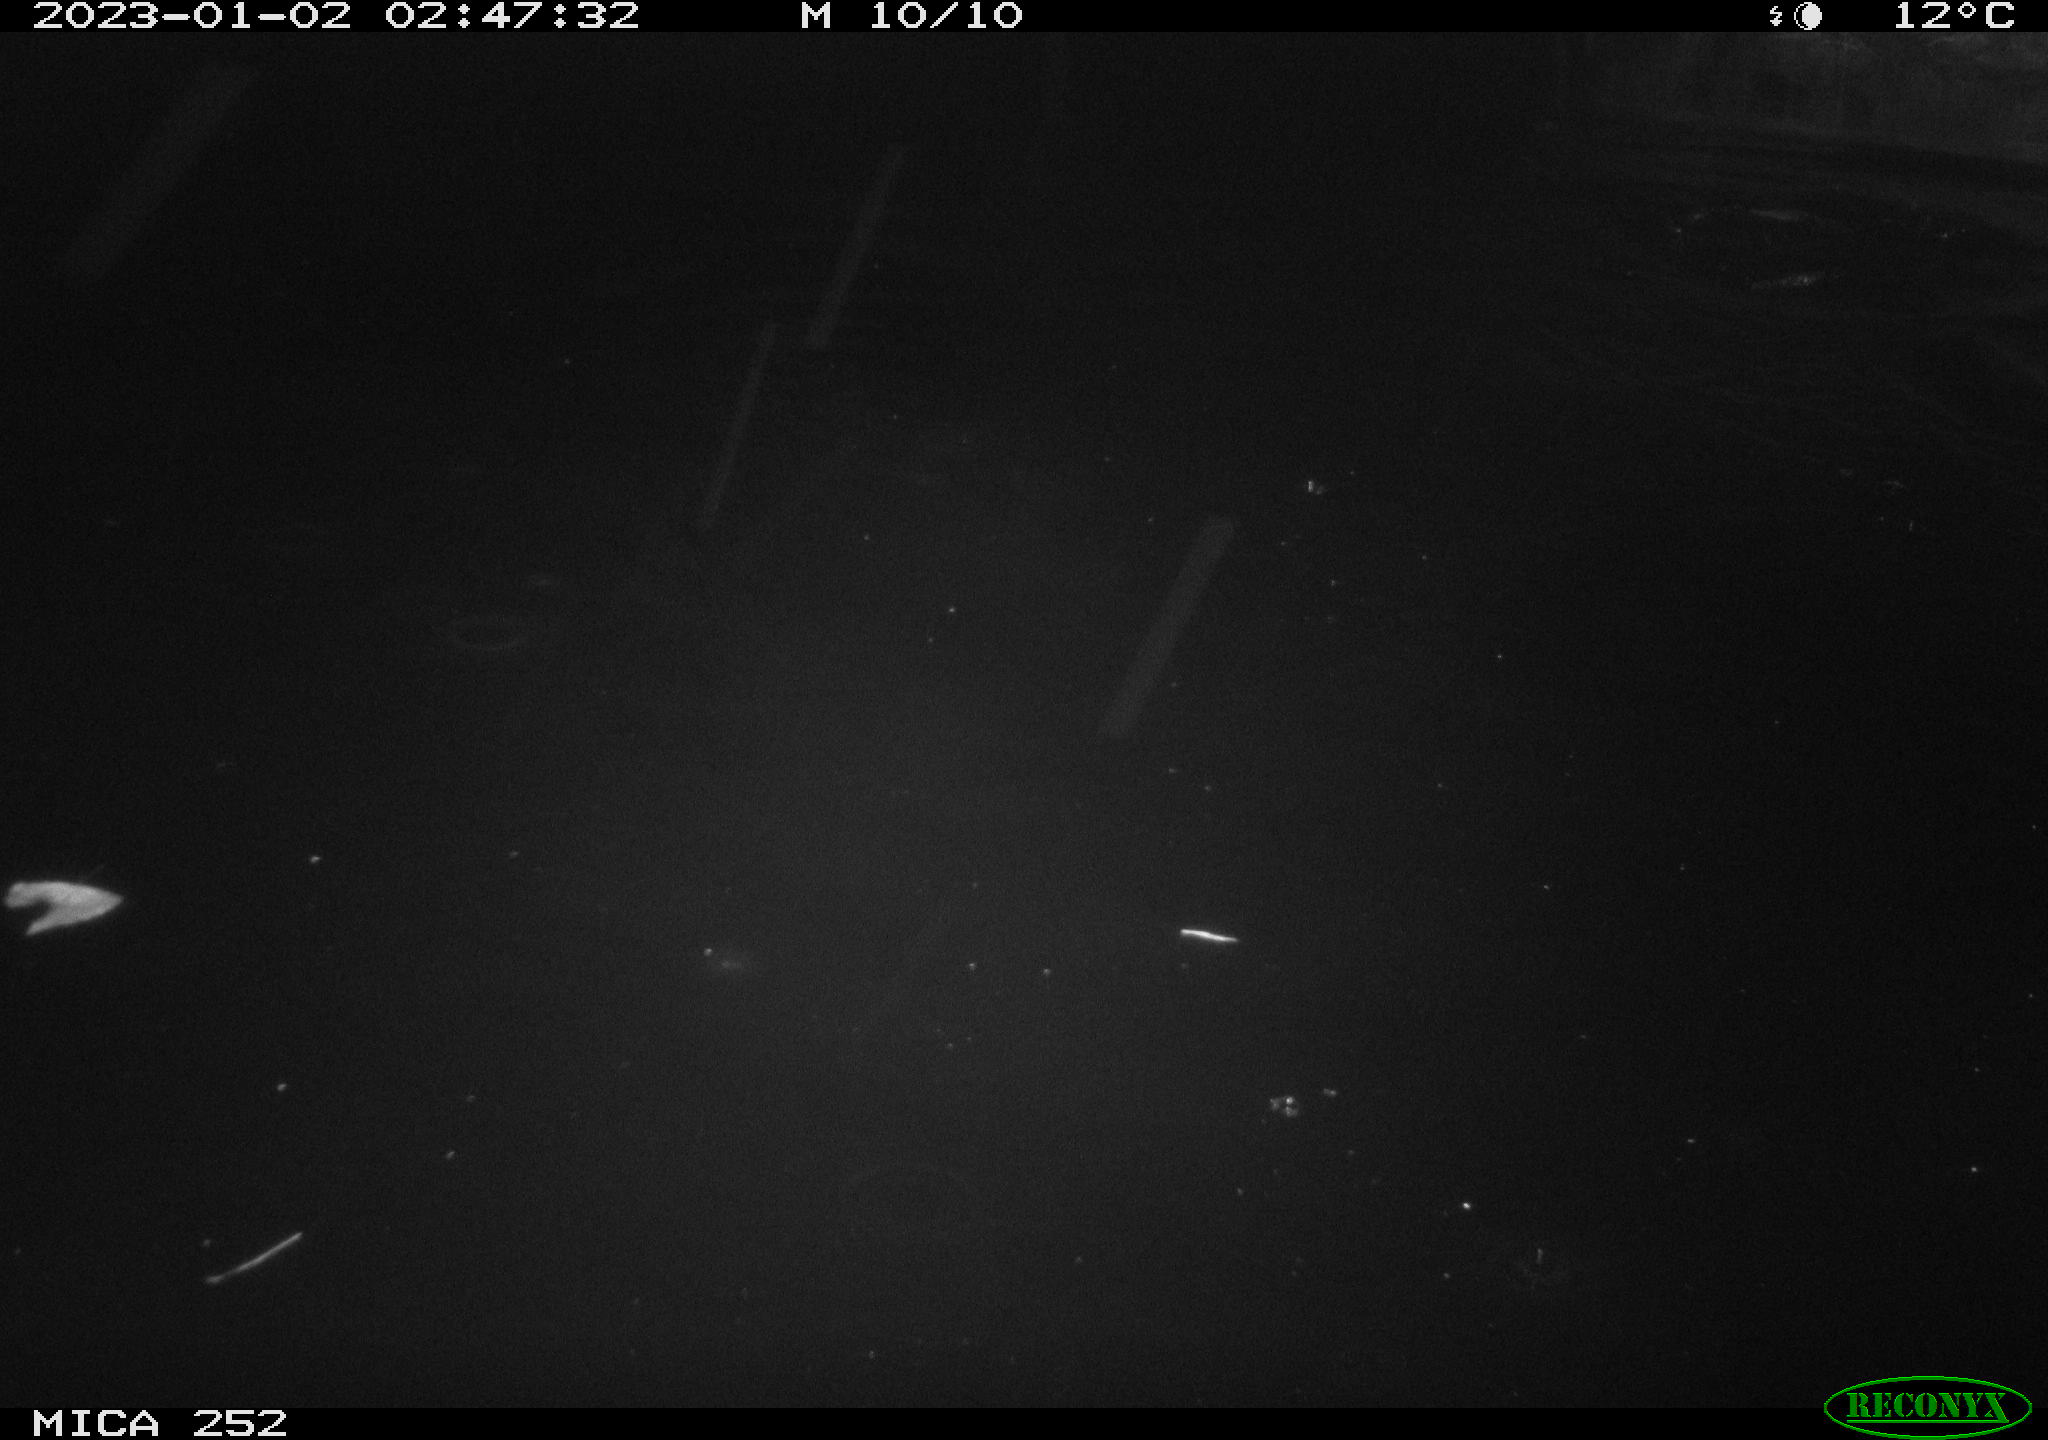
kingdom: Animalia
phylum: Chordata
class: Mammalia
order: Rodentia
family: Castoridae
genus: Castor
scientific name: Castor fiber
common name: Eurasian beaver
